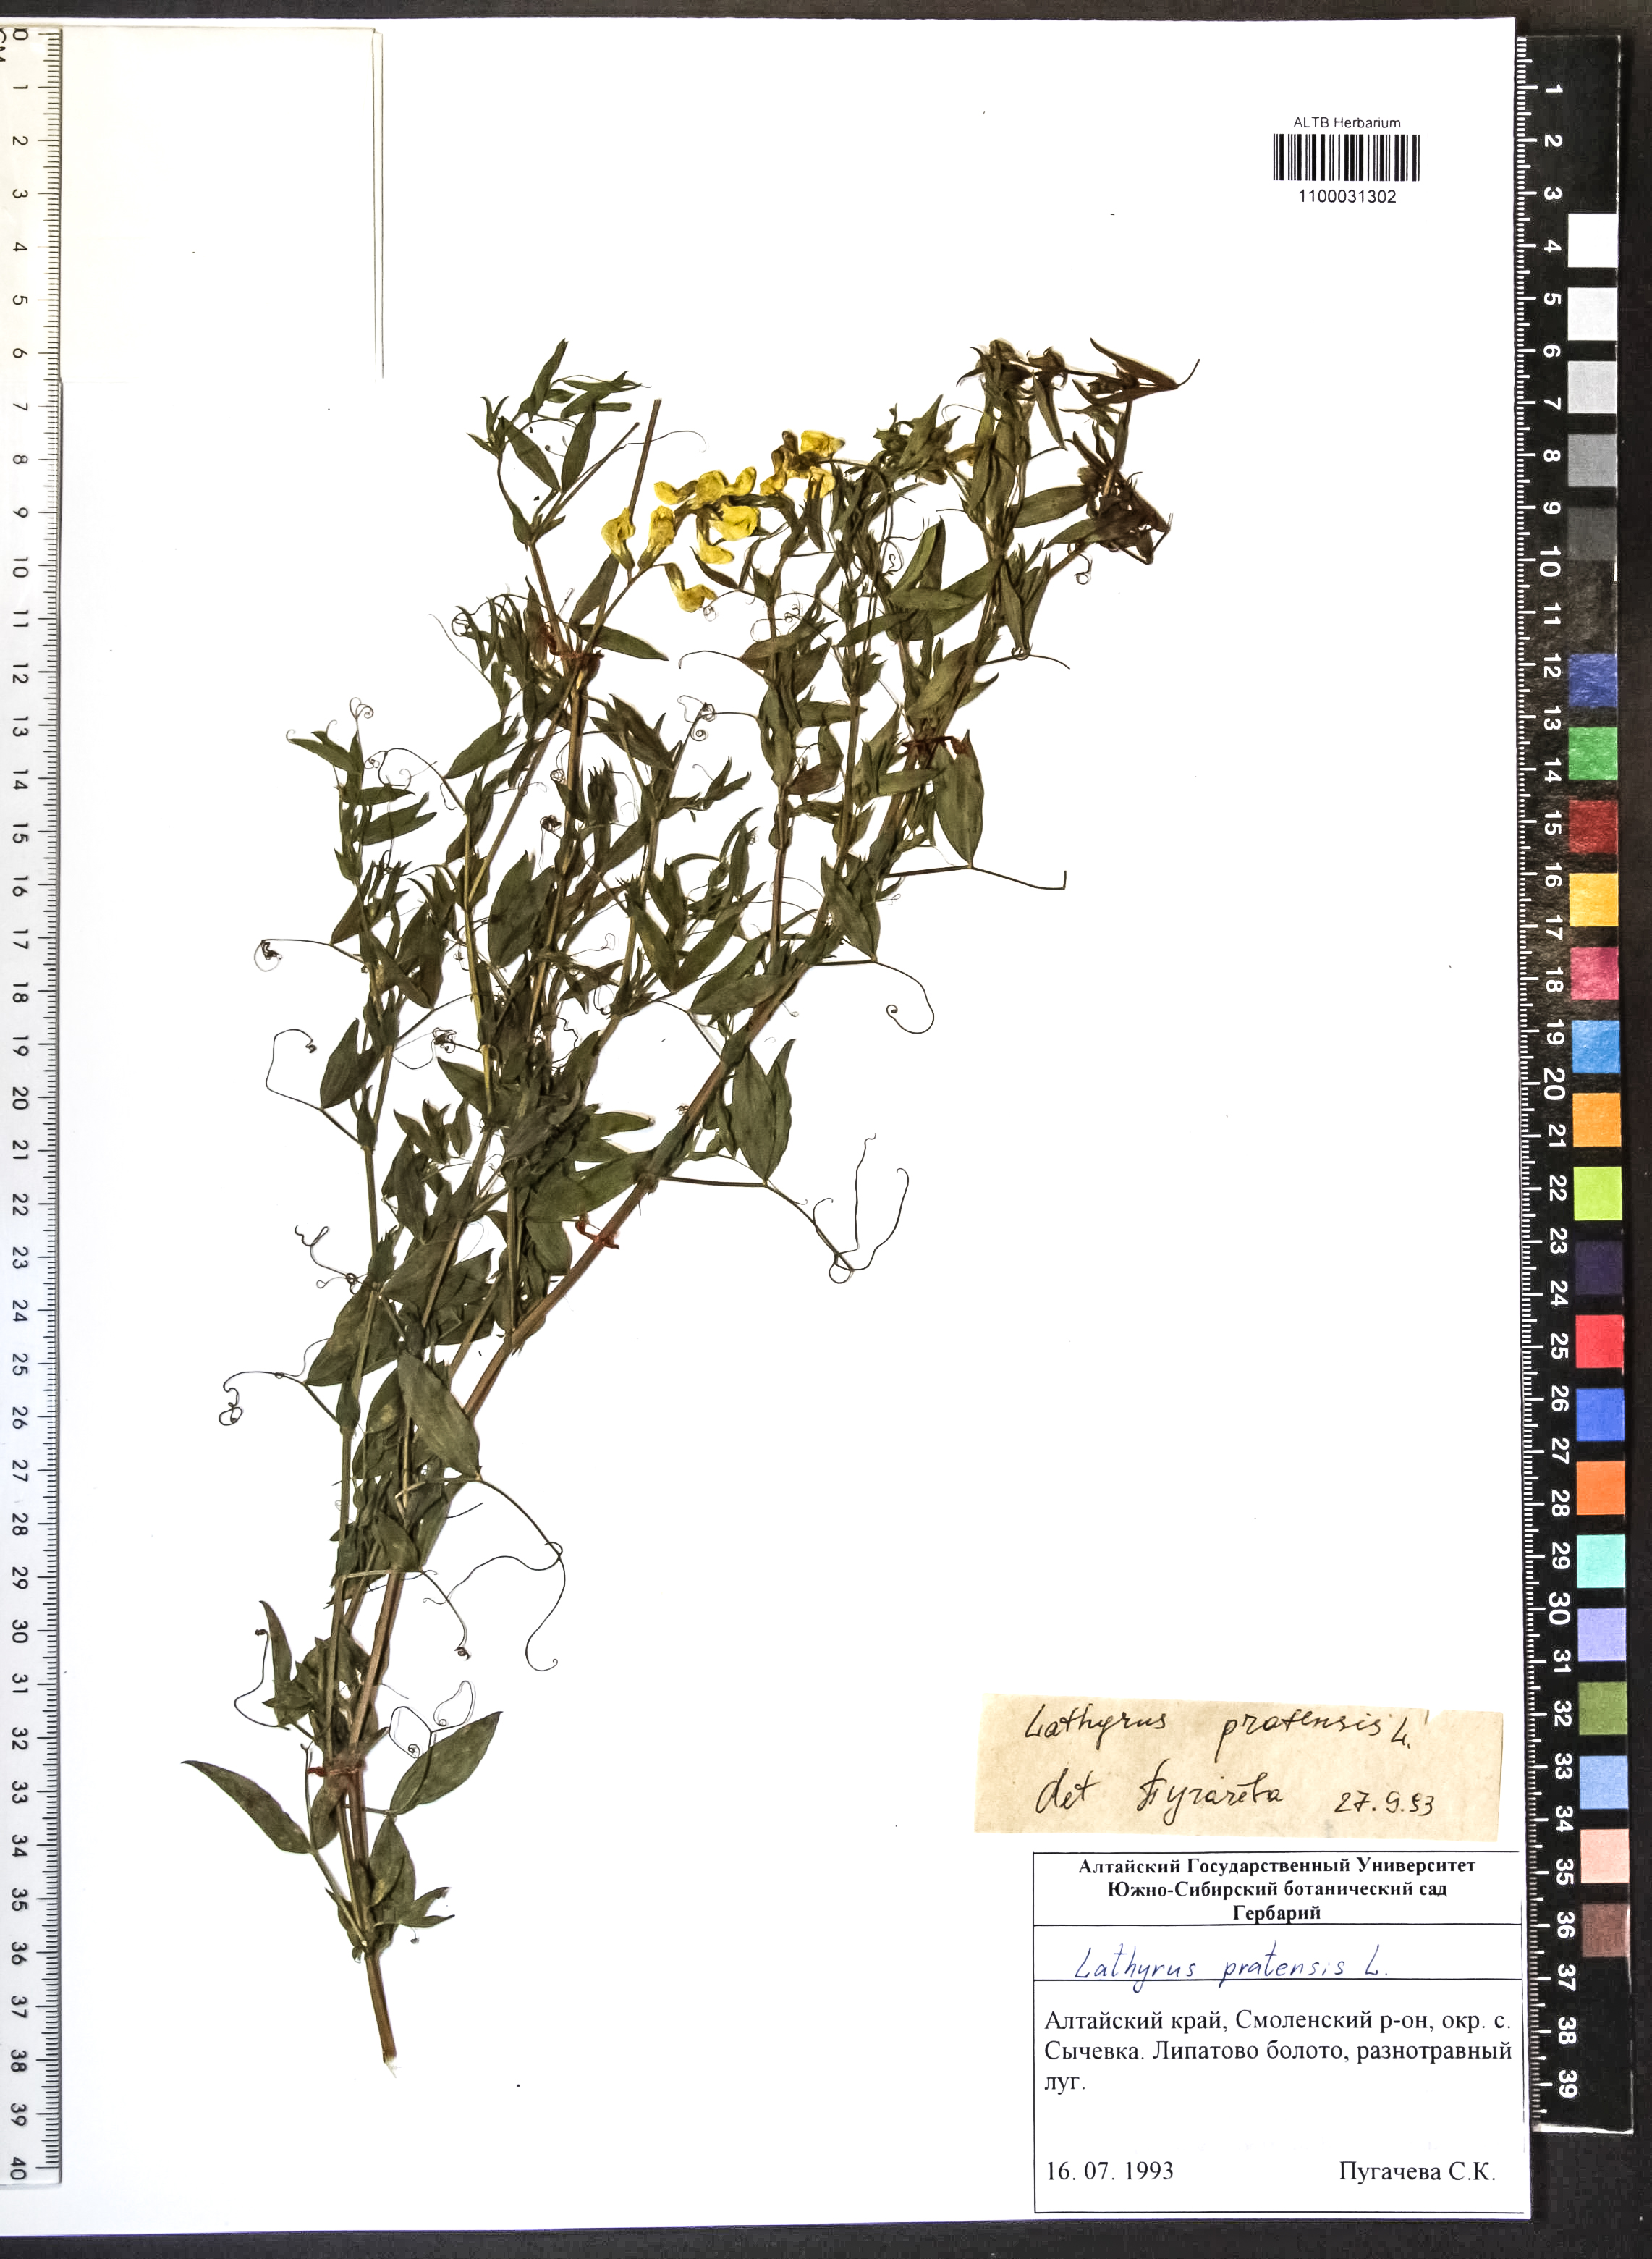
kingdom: Plantae
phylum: Tracheophyta
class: Magnoliopsida
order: Fabales
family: Fabaceae
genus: Lathyrus
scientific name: Lathyrus pratensis
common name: Meadow vetchling
